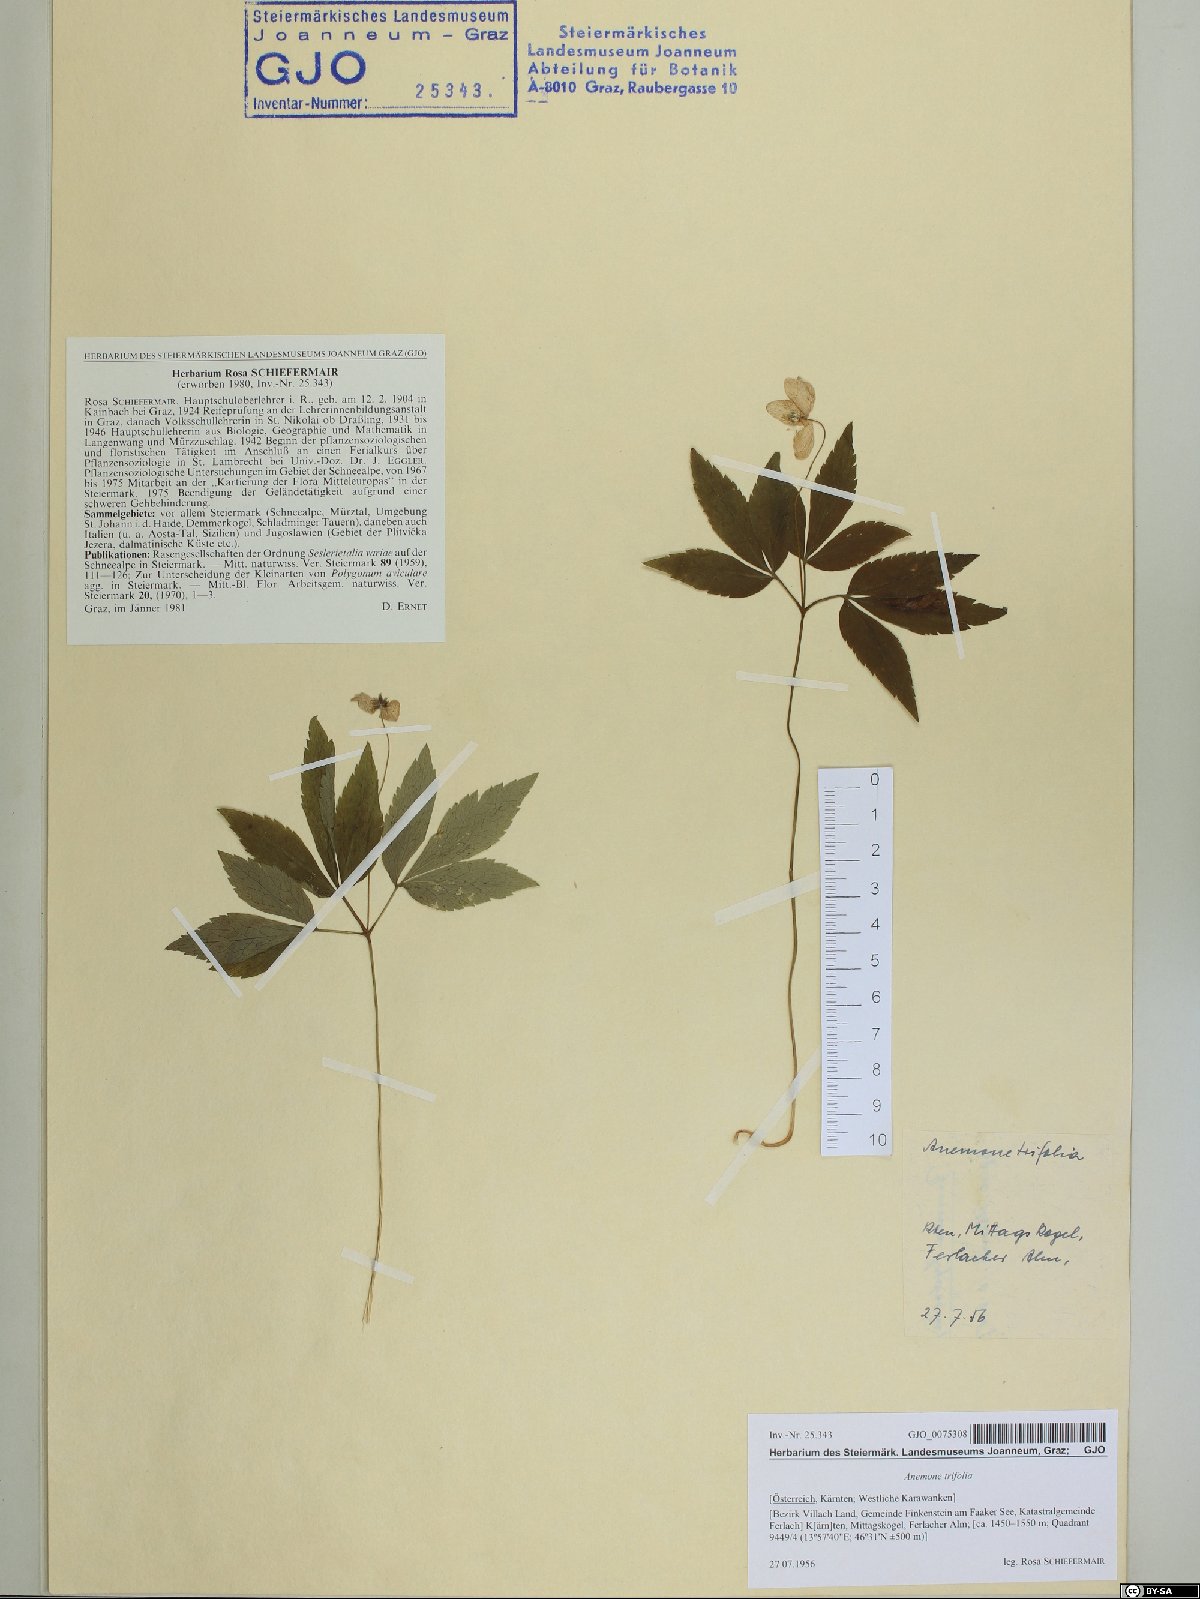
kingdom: Plantae
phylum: Tracheophyta
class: Magnoliopsida
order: Ranunculales
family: Ranunculaceae
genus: Anemone
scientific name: Anemone trifolia
